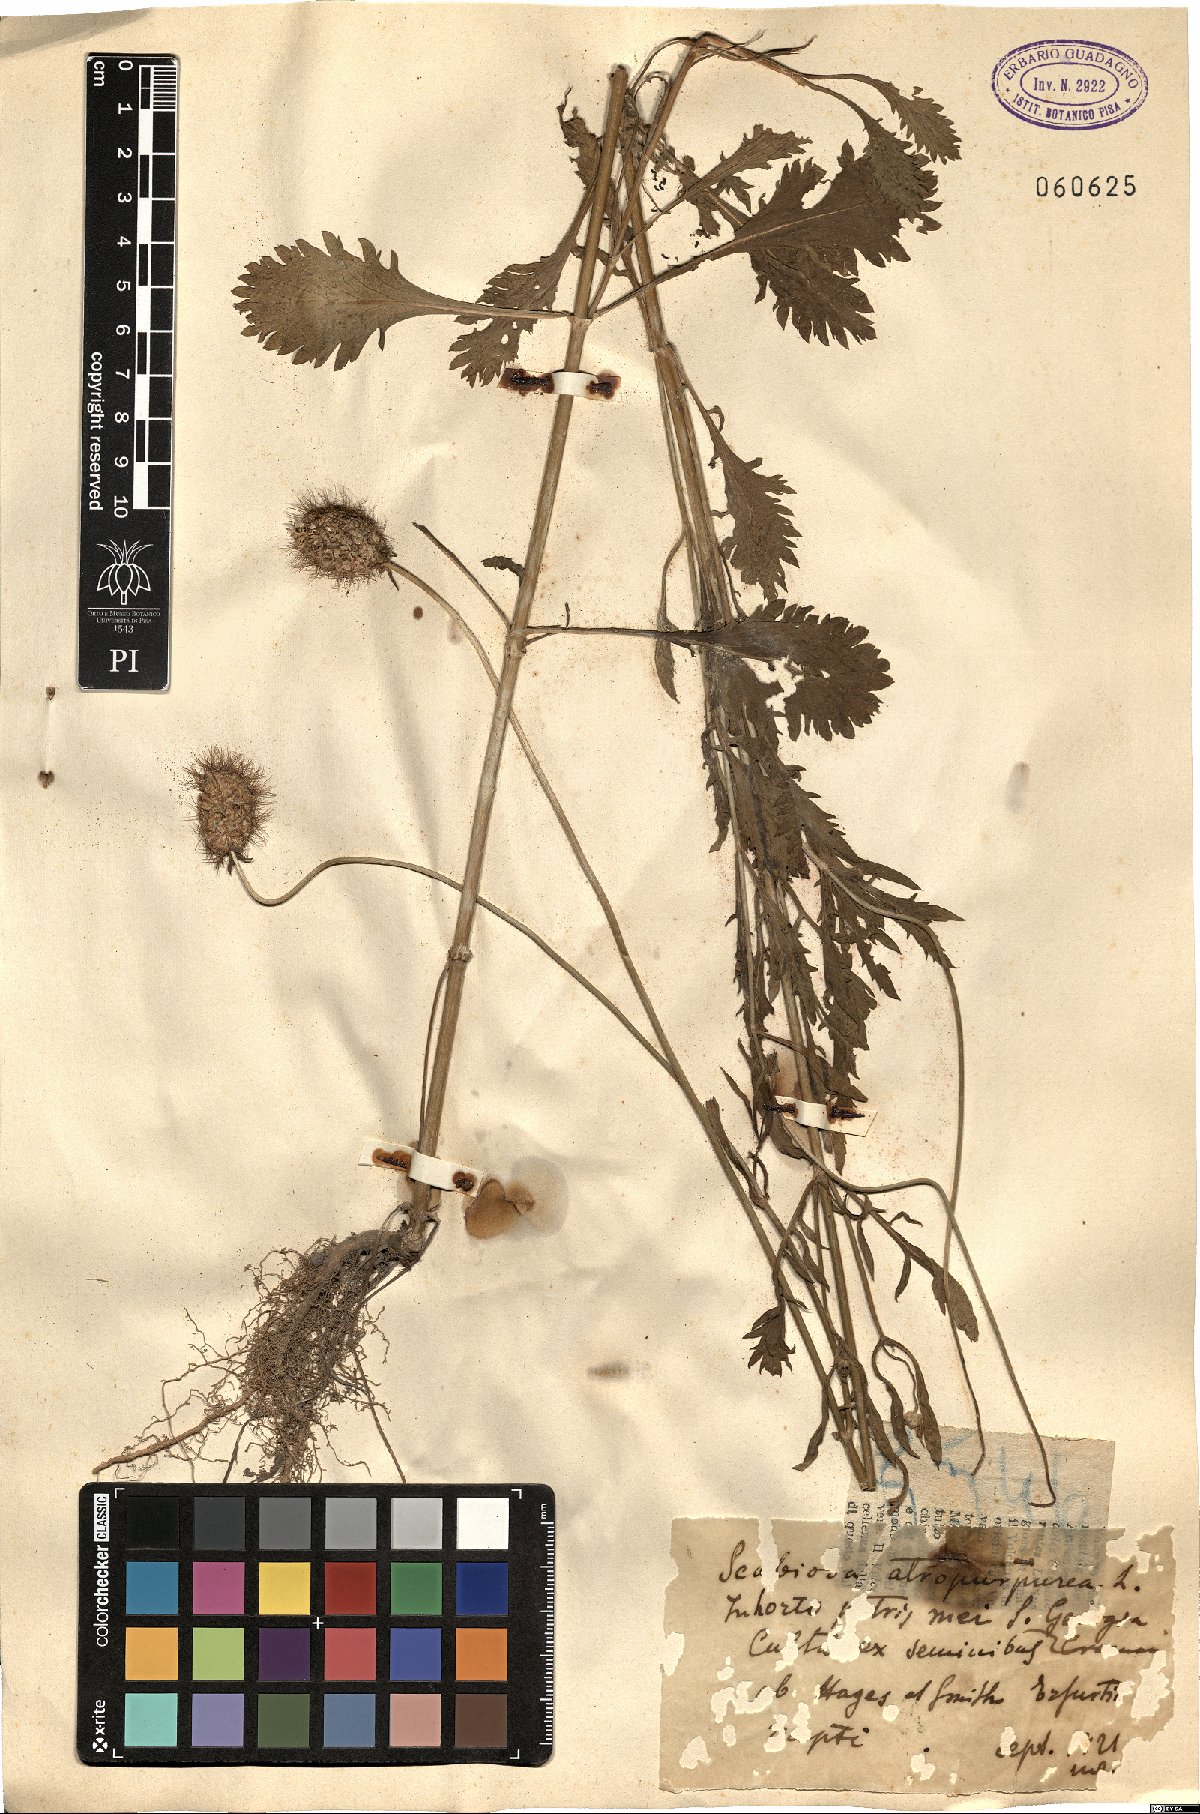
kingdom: Plantae
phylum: Tracheophyta
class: Magnoliopsida
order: Dipsacales
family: Caprifoliaceae
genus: Sixalix
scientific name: Sixalix atropurpurea
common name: Sweet scabious
